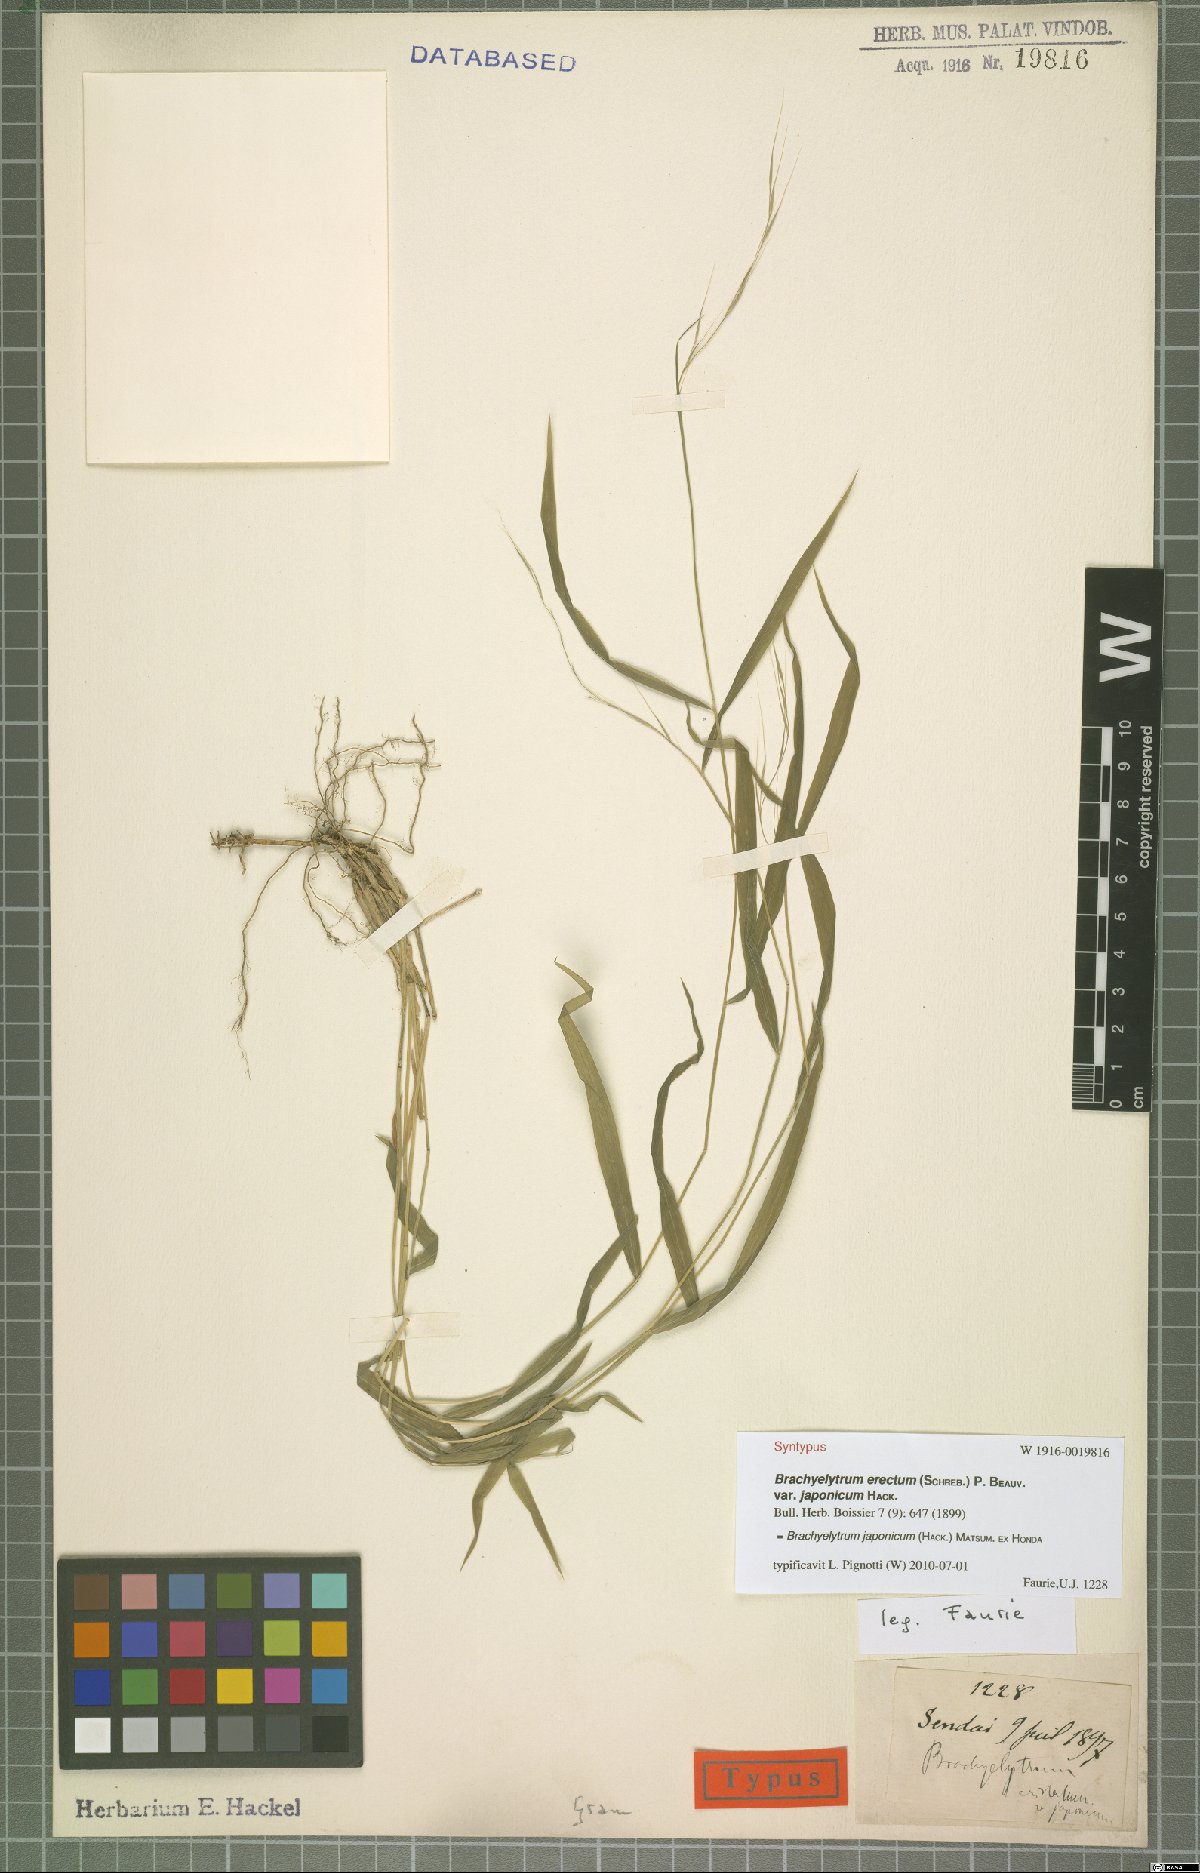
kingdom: Plantae
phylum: Tracheophyta
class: Liliopsida
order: Poales
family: Poaceae
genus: Brachyelytrum
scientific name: Brachyelytrum japonicum
